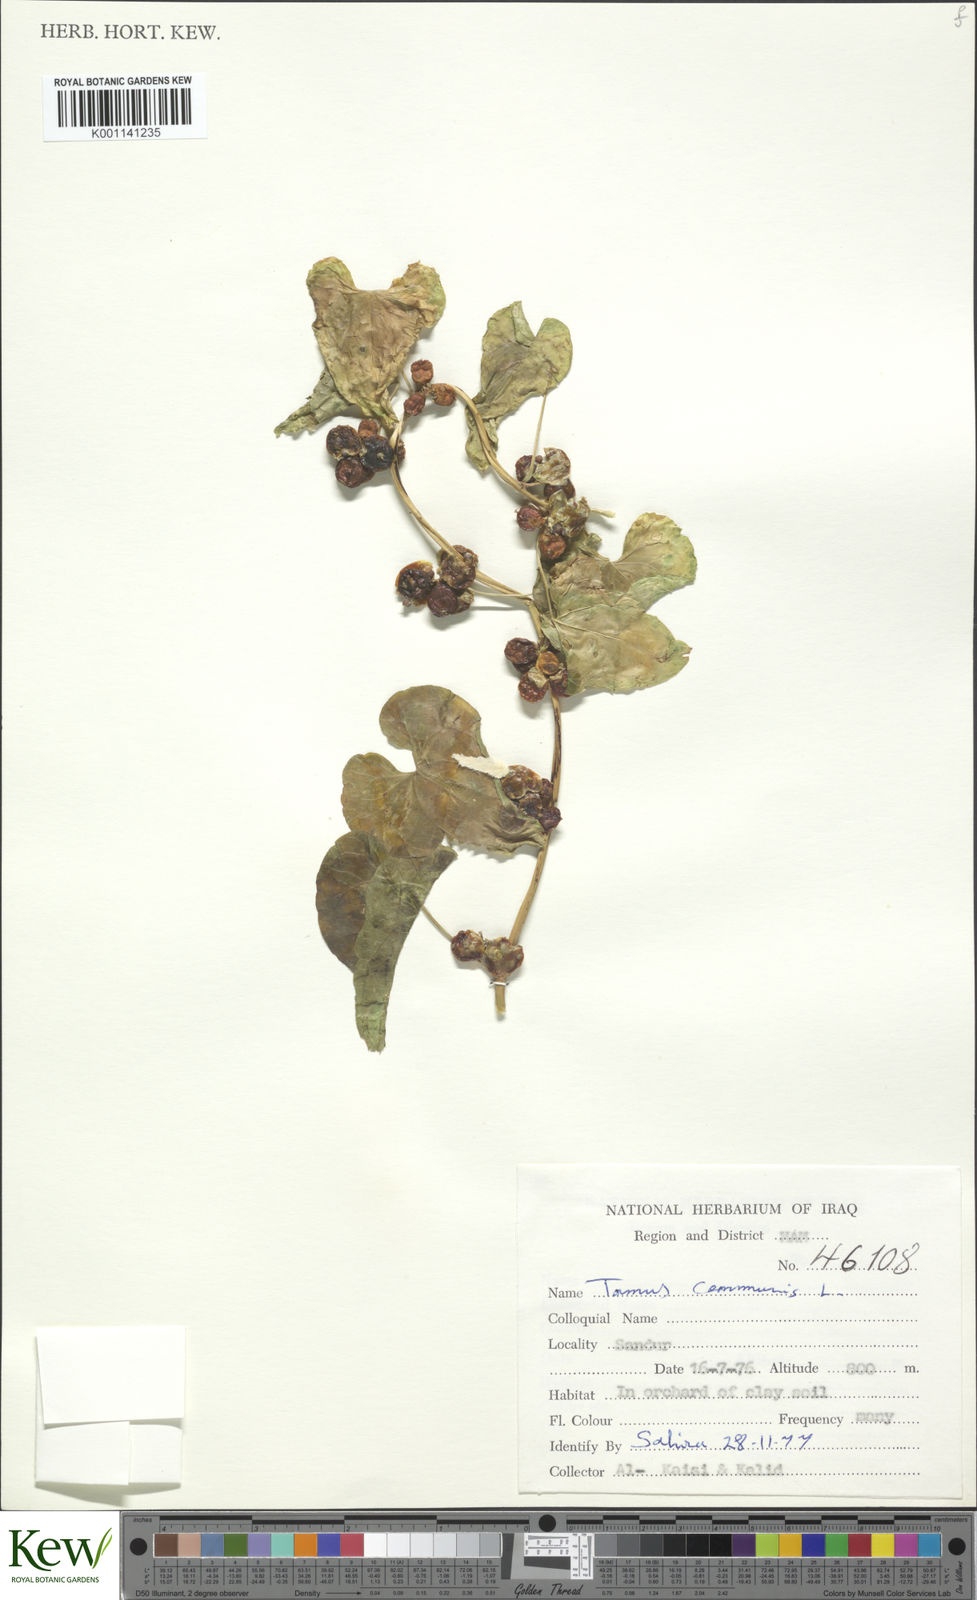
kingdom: Plantae
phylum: Tracheophyta
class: Liliopsida
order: Dioscoreales
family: Dioscoreaceae
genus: Dioscorea
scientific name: Dioscorea communis
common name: Black-bindweed
